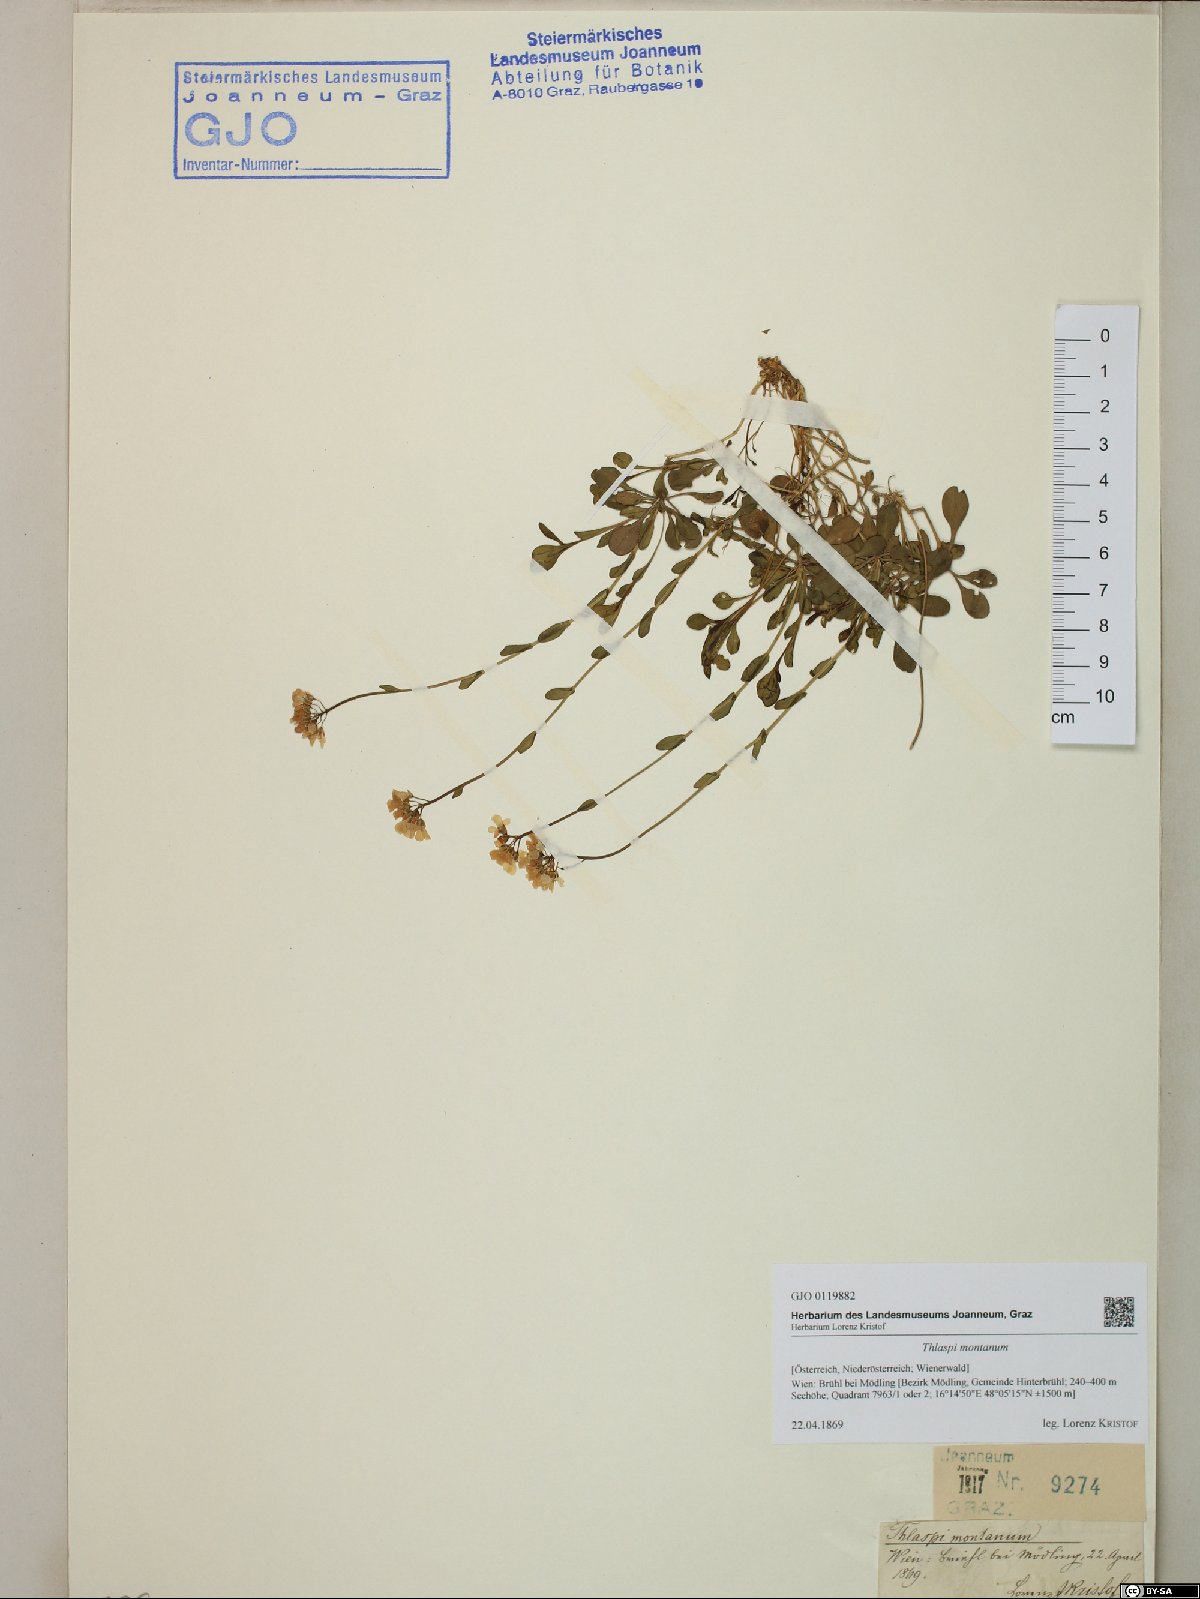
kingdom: Plantae
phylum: Tracheophyta
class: Magnoliopsida
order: Brassicales
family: Brassicaceae
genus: Noccaea
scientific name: Noccaea montana
